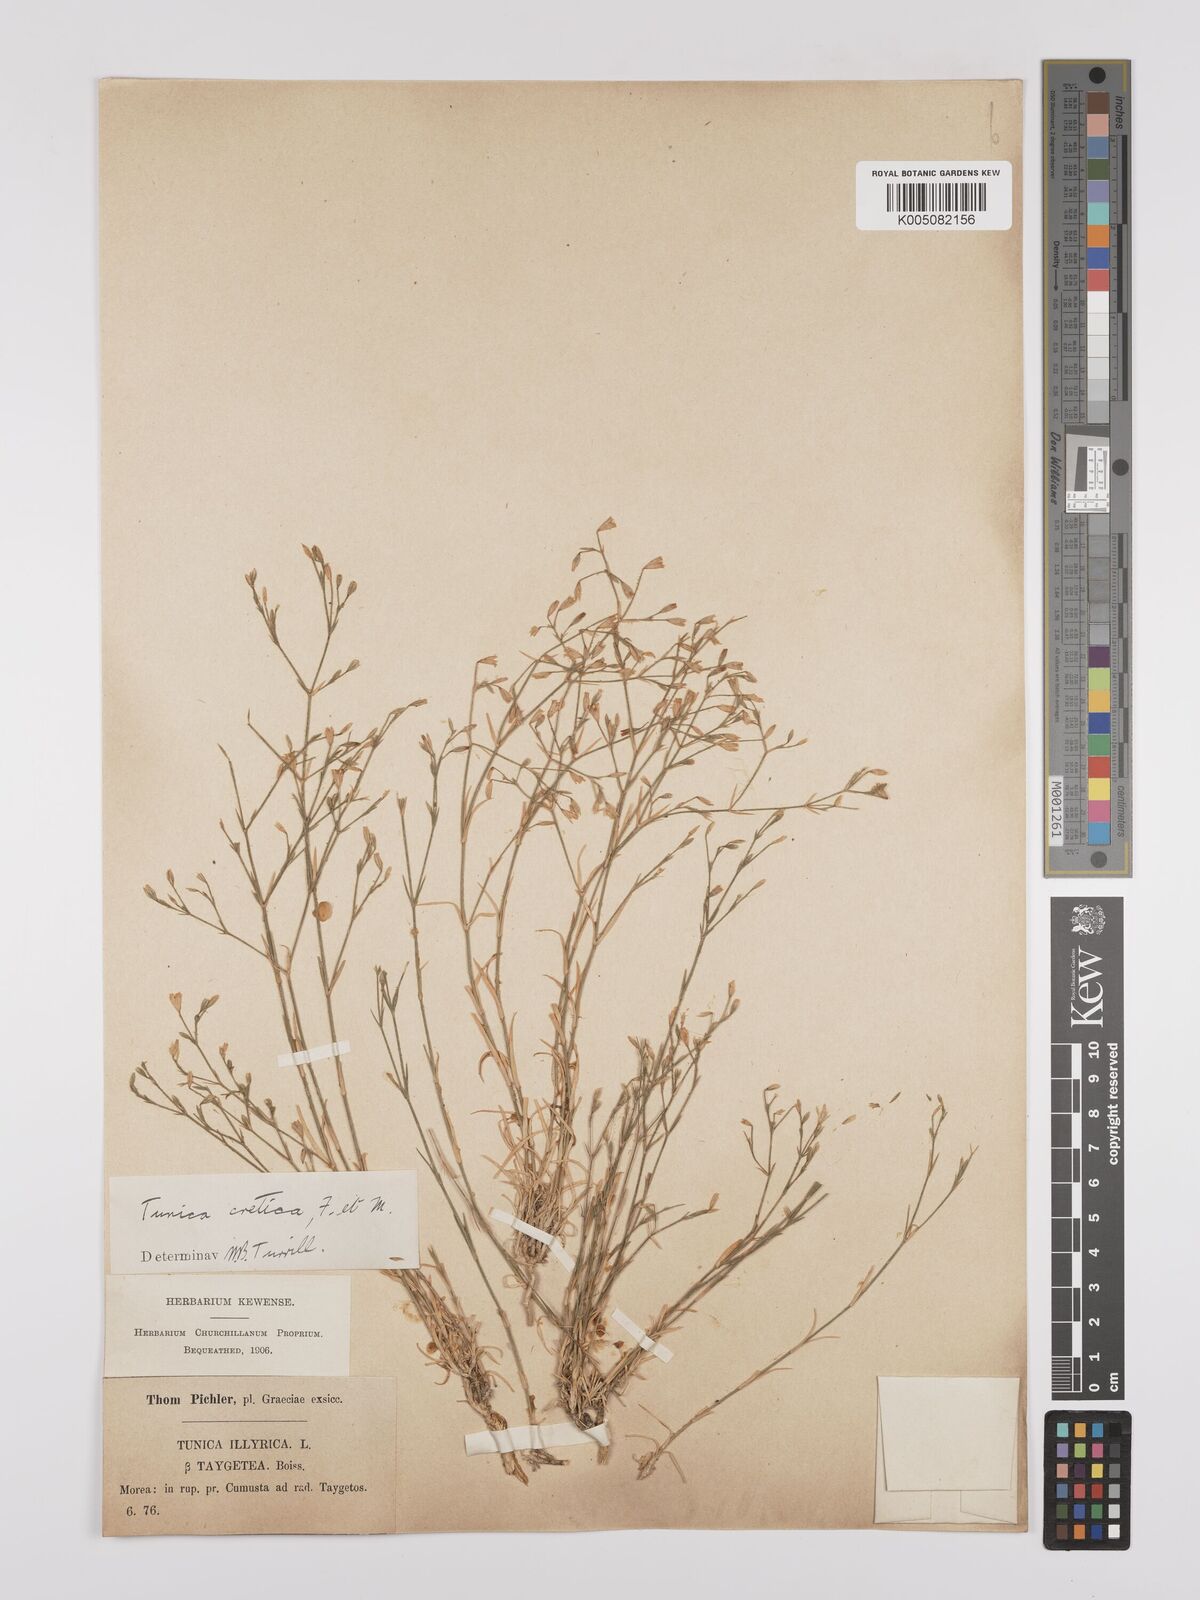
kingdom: Plantae
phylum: Tracheophyta
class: Magnoliopsida
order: Caryophyllales
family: Caryophyllaceae
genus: Petrorhagia
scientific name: Petrorhagia cretica
